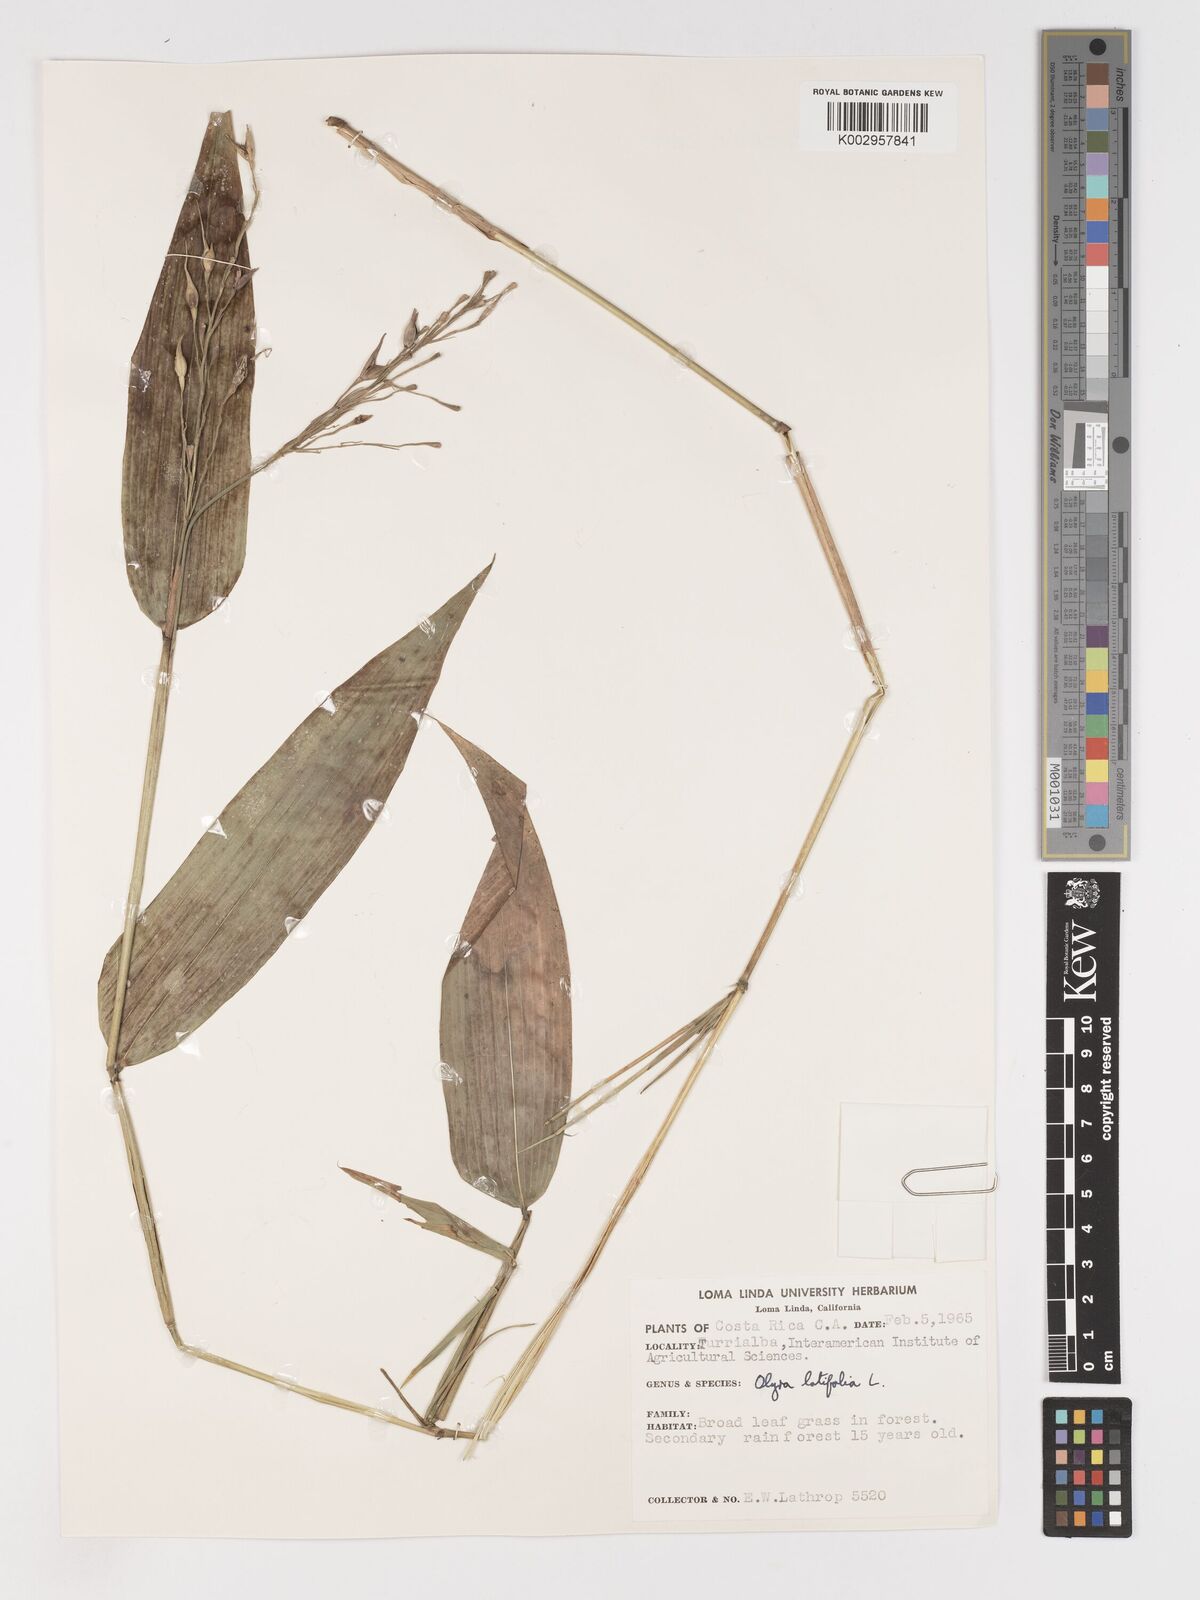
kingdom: Plantae
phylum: Tracheophyta
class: Liliopsida
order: Poales
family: Poaceae
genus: Olyra
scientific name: Olyra latifolia
